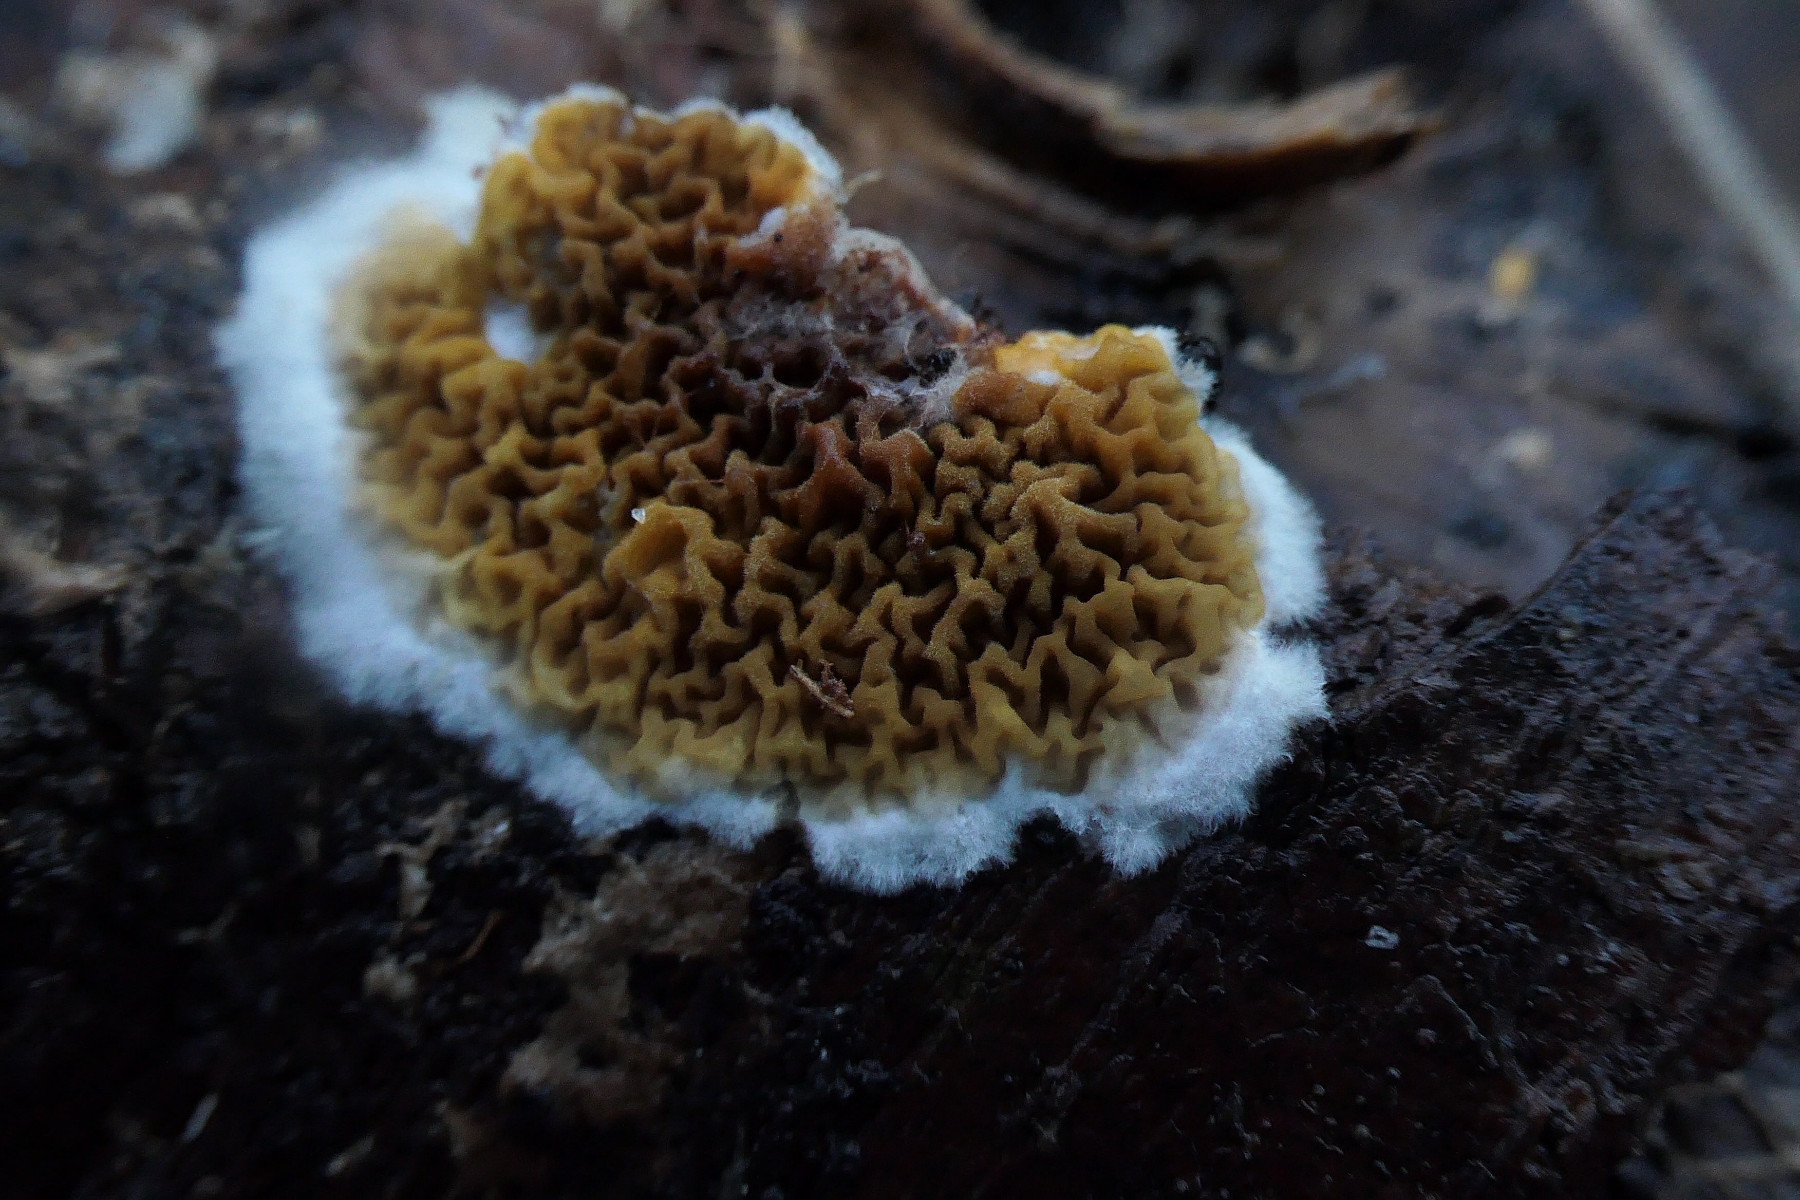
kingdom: Fungi
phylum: Basidiomycota
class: Agaricomycetes
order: Boletales
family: Serpulaceae
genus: Serpula
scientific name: Serpula himantioides
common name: tyndkødet hussvamp
